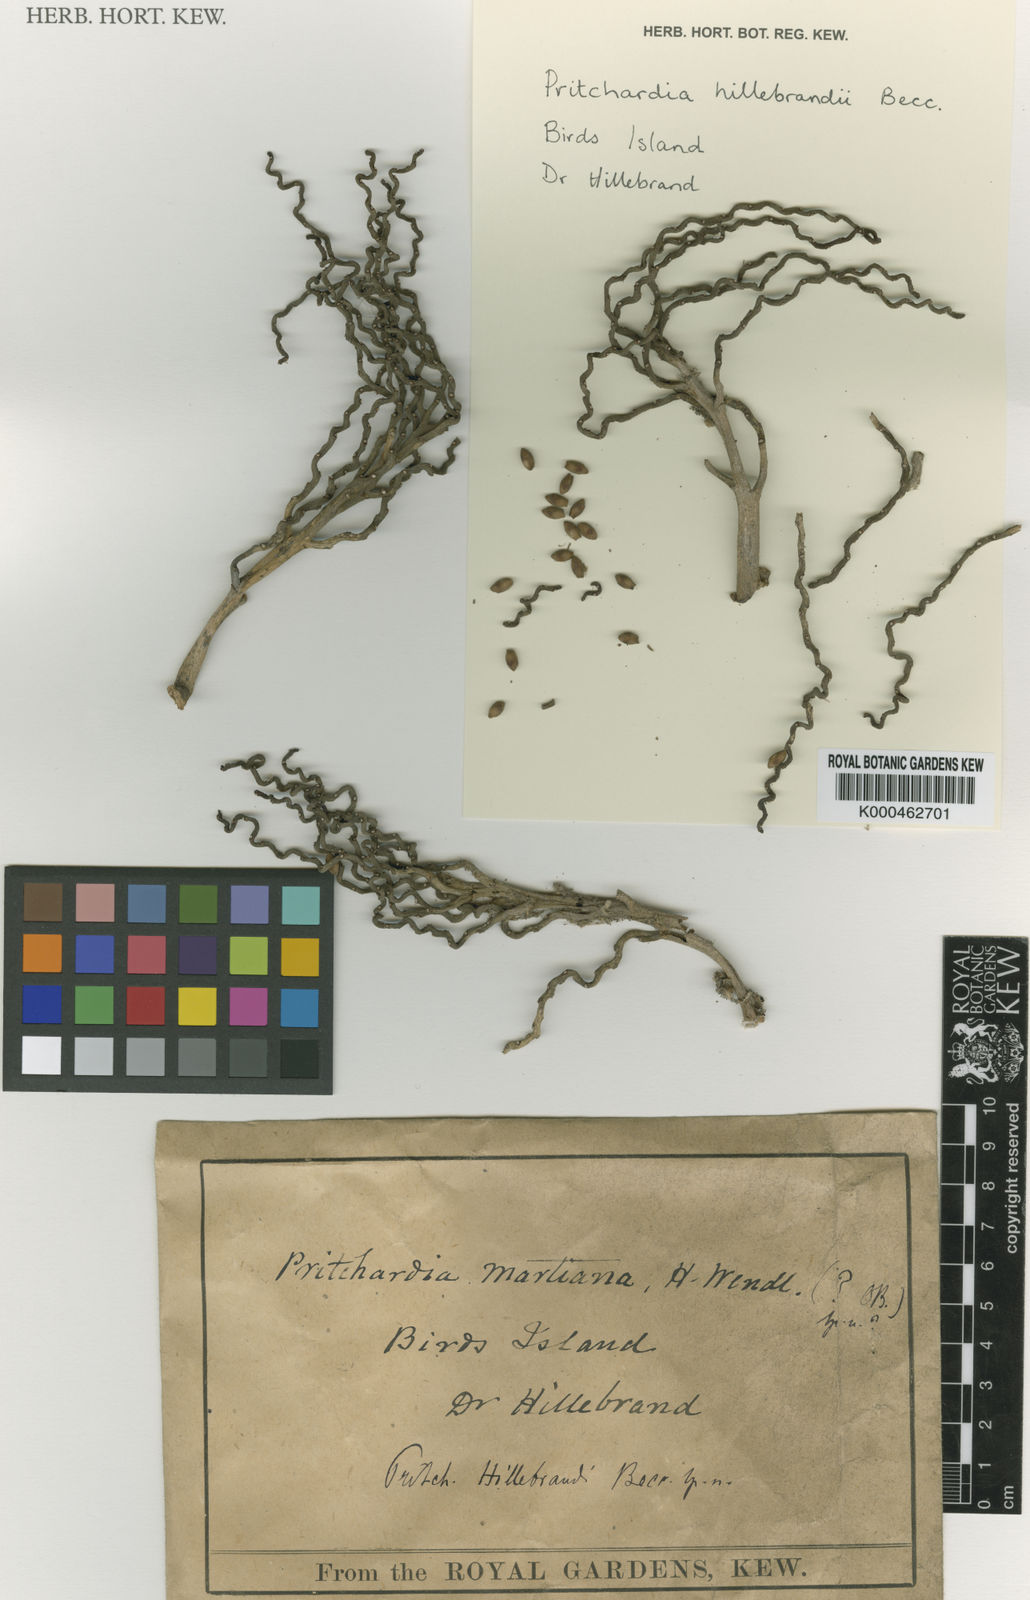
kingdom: Plantae
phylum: Tracheophyta
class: Liliopsida
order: Arecales
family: Arecaceae
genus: Pritchardia
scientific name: Pritchardia hillebrandii
